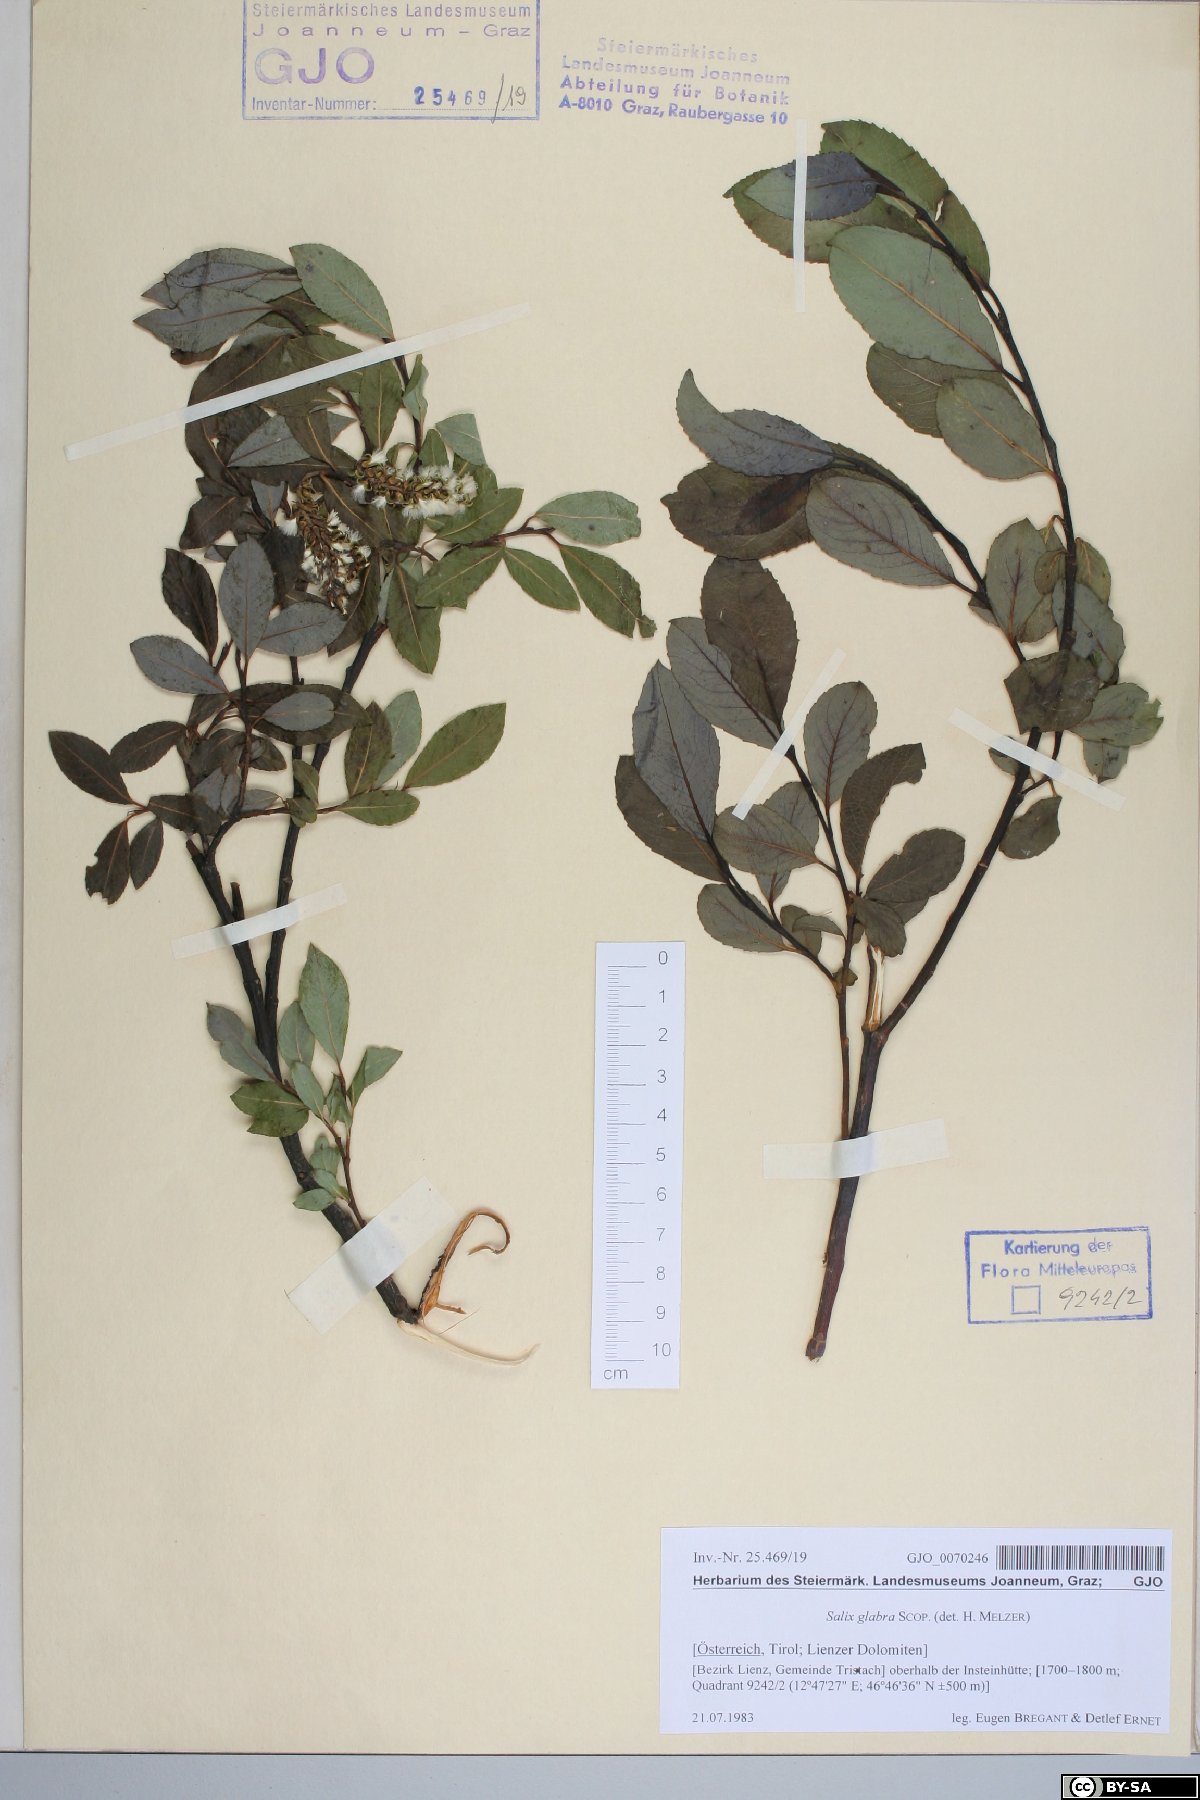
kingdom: Plantae
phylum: Tracheophyta
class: Magnoliopsida
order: Malpighiales
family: Salicaceae
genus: Salix
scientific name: Salix glabra
